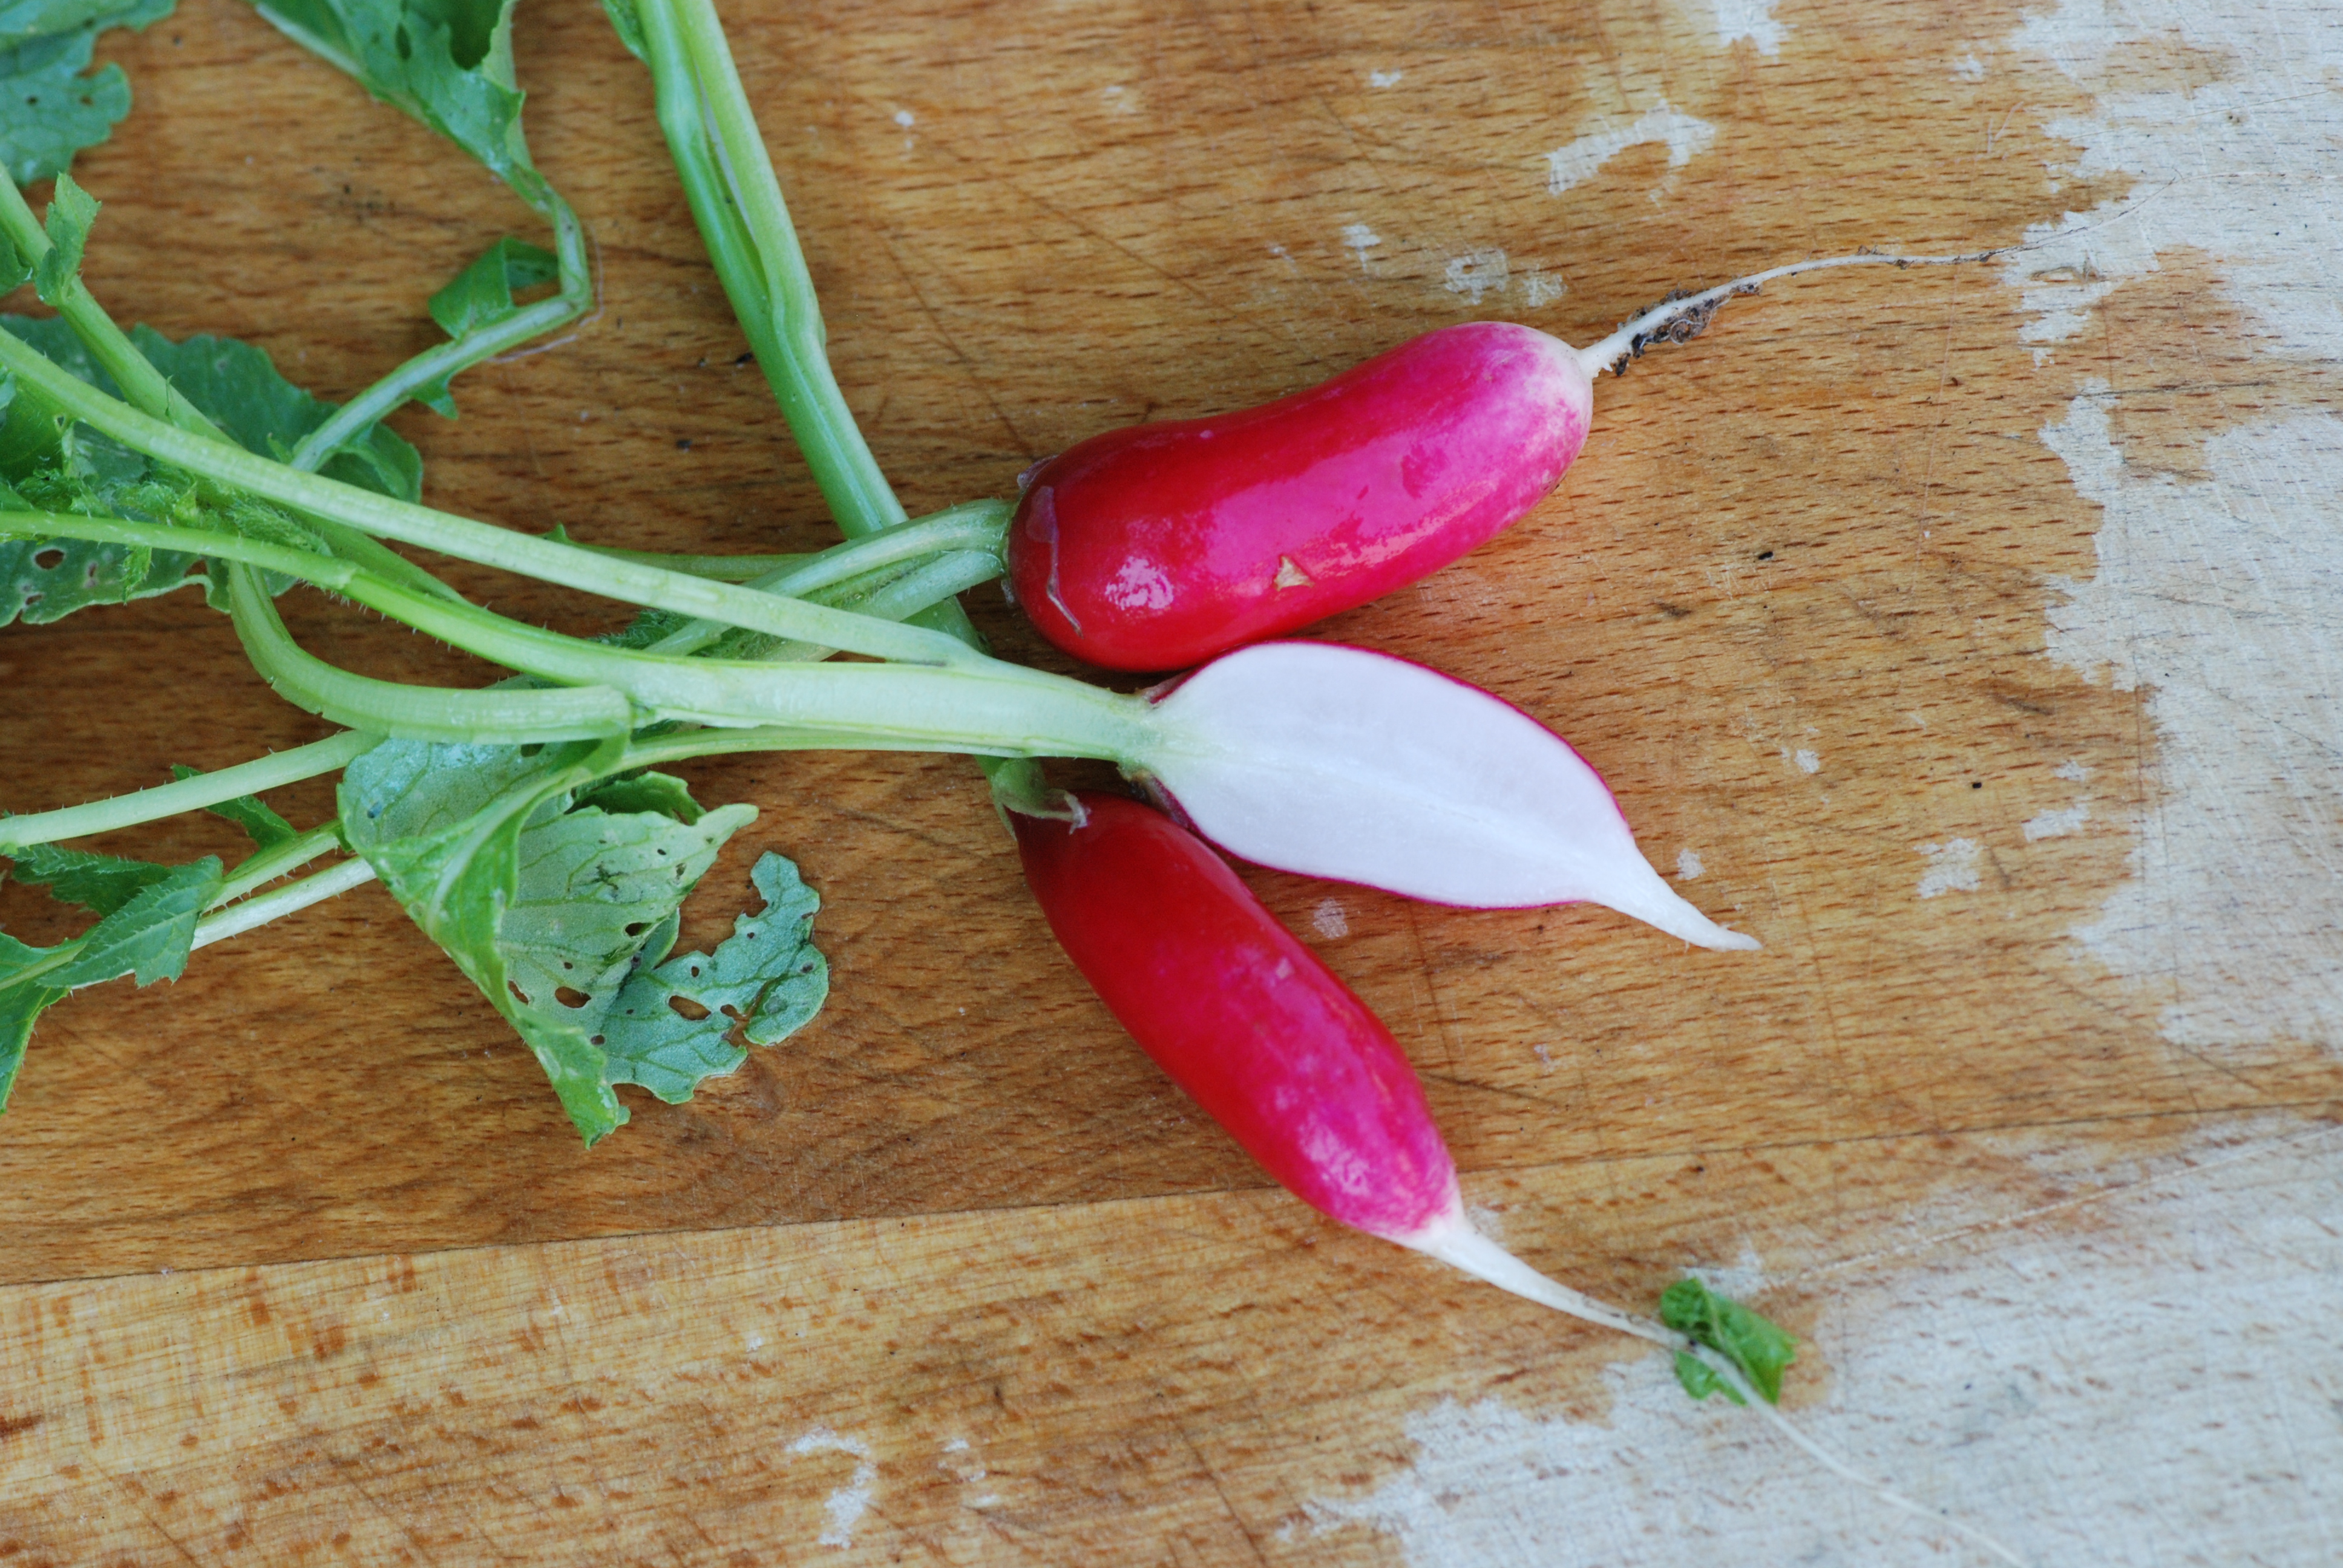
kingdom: Plantae
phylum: Tracheophyta
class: Magnoliopsida
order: Brassicales
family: Brassicaceae
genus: Raphanus
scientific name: Raphanus sativus
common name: Cultivated radish
